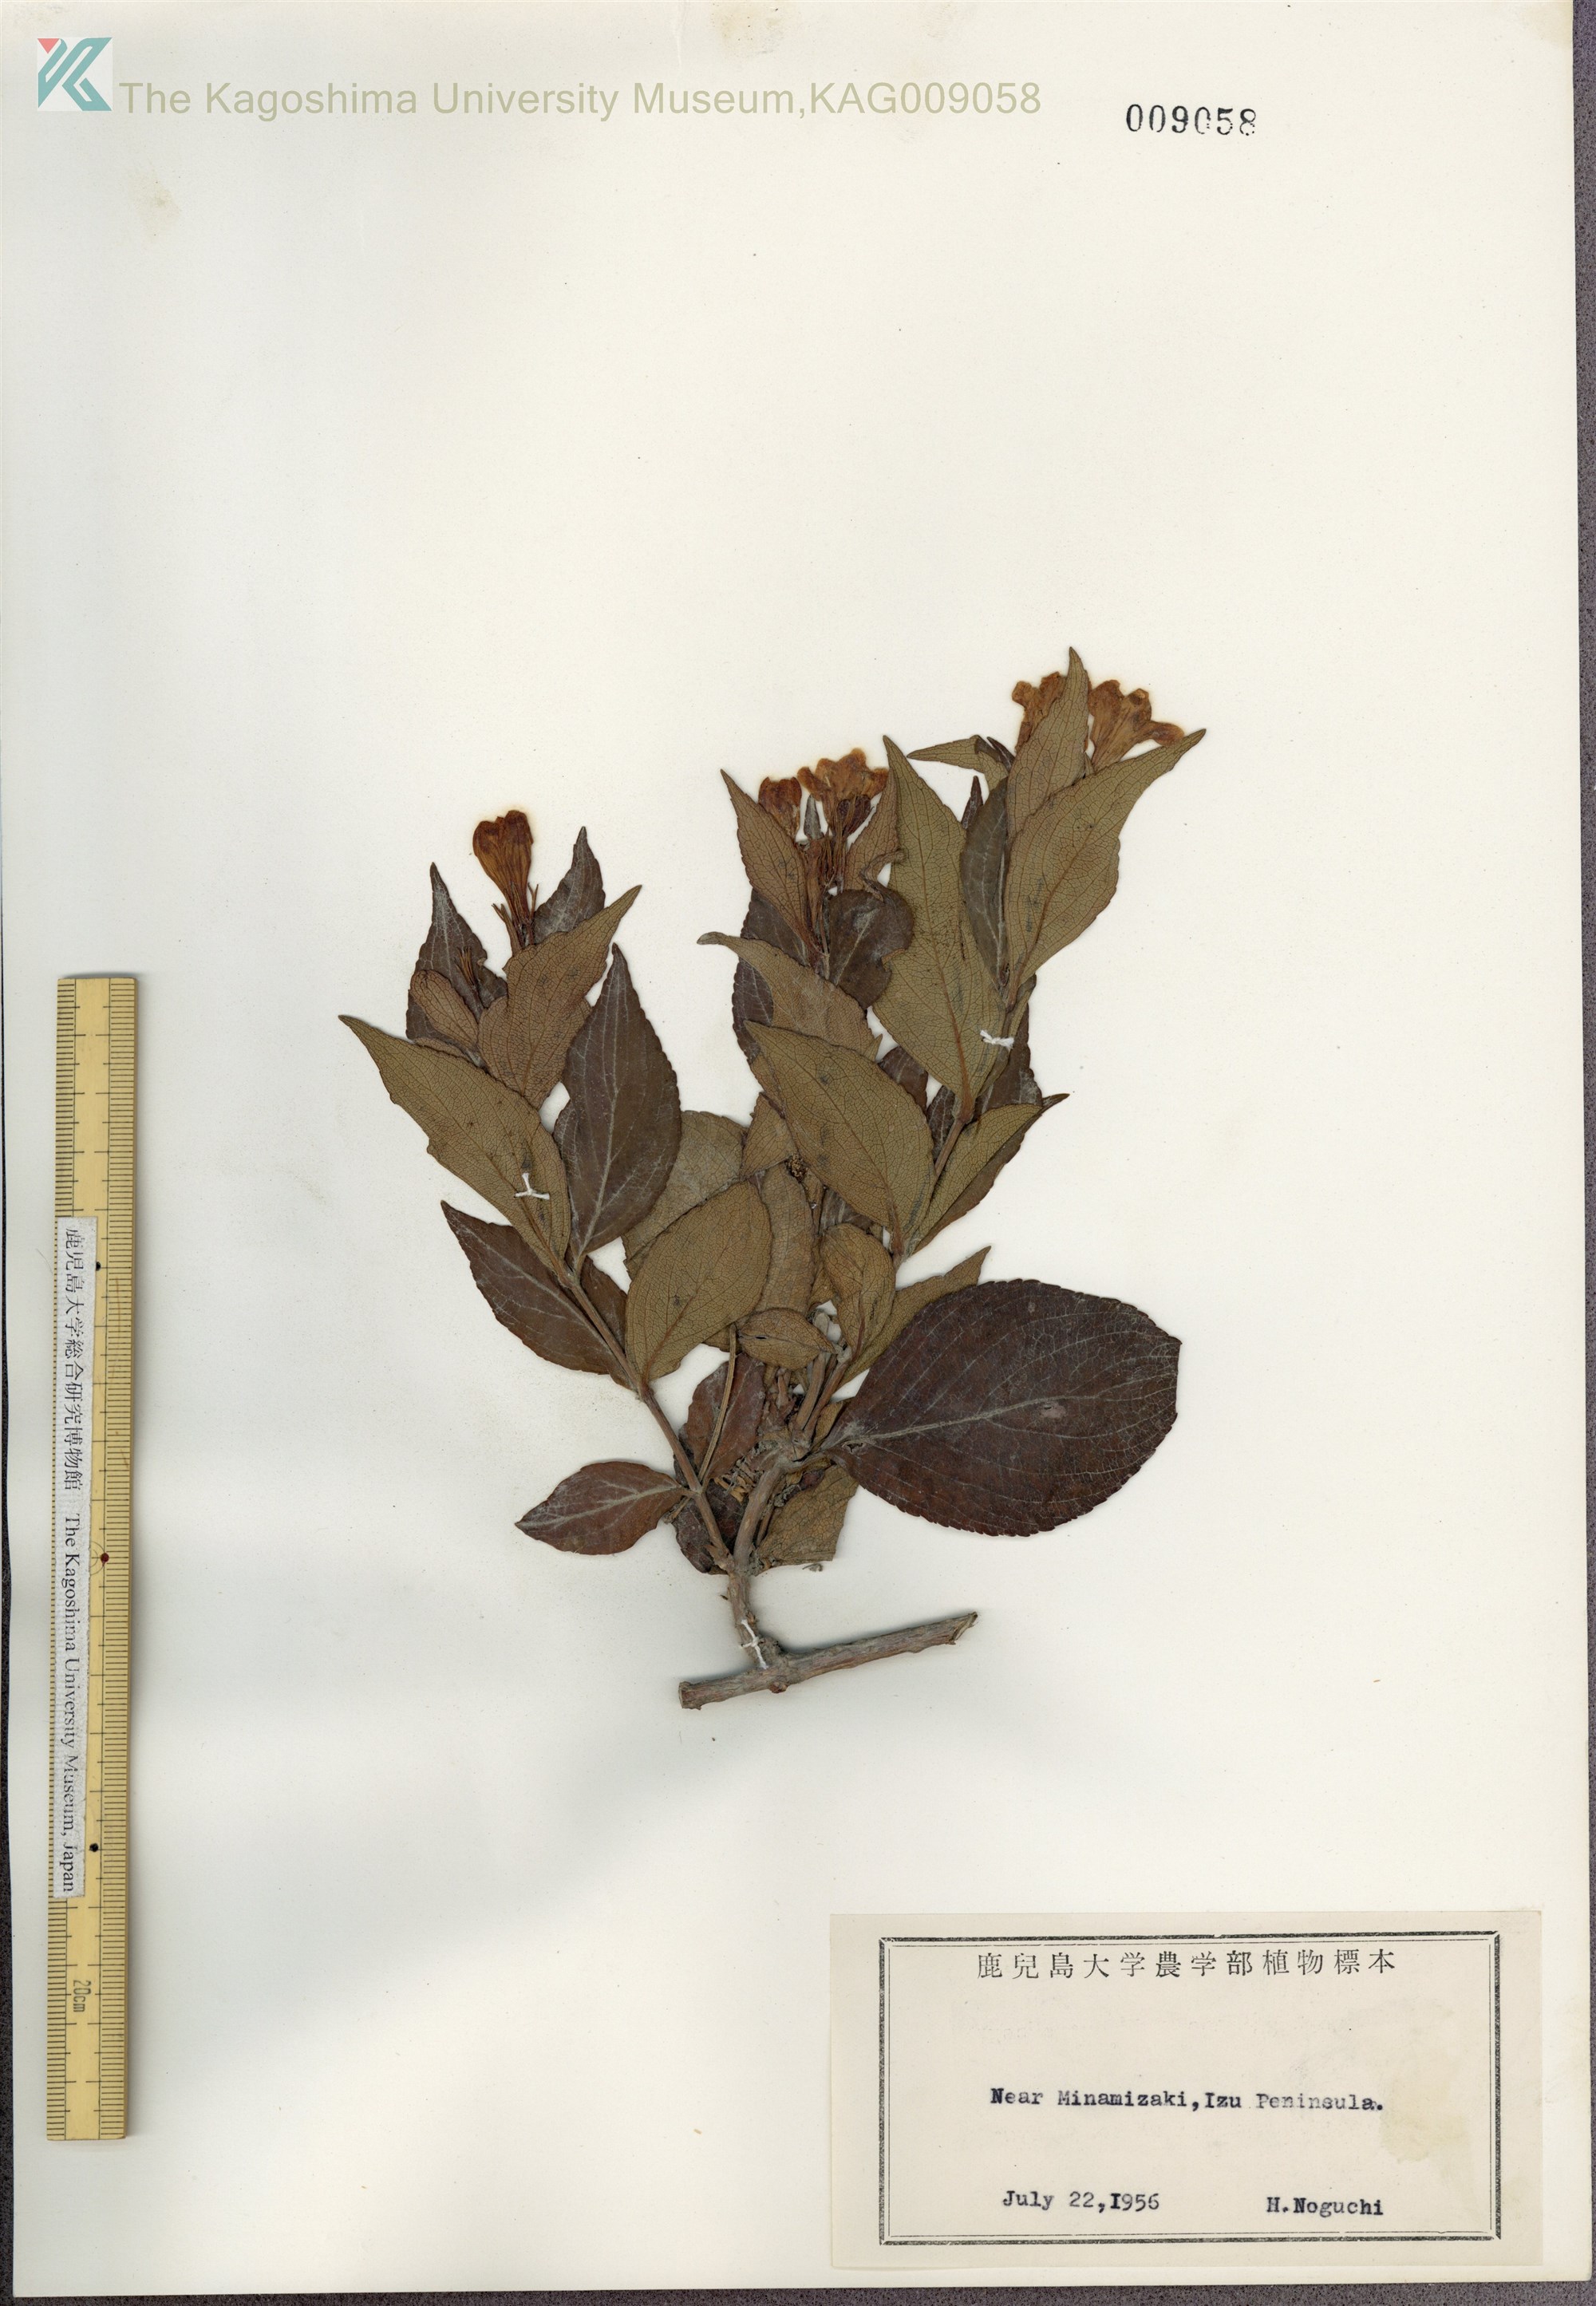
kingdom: Plantae
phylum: Tracheophyta
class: Magnoliopsida
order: Dipsacales
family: Caprifoliaceae
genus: Weigela
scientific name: Weigela decora
